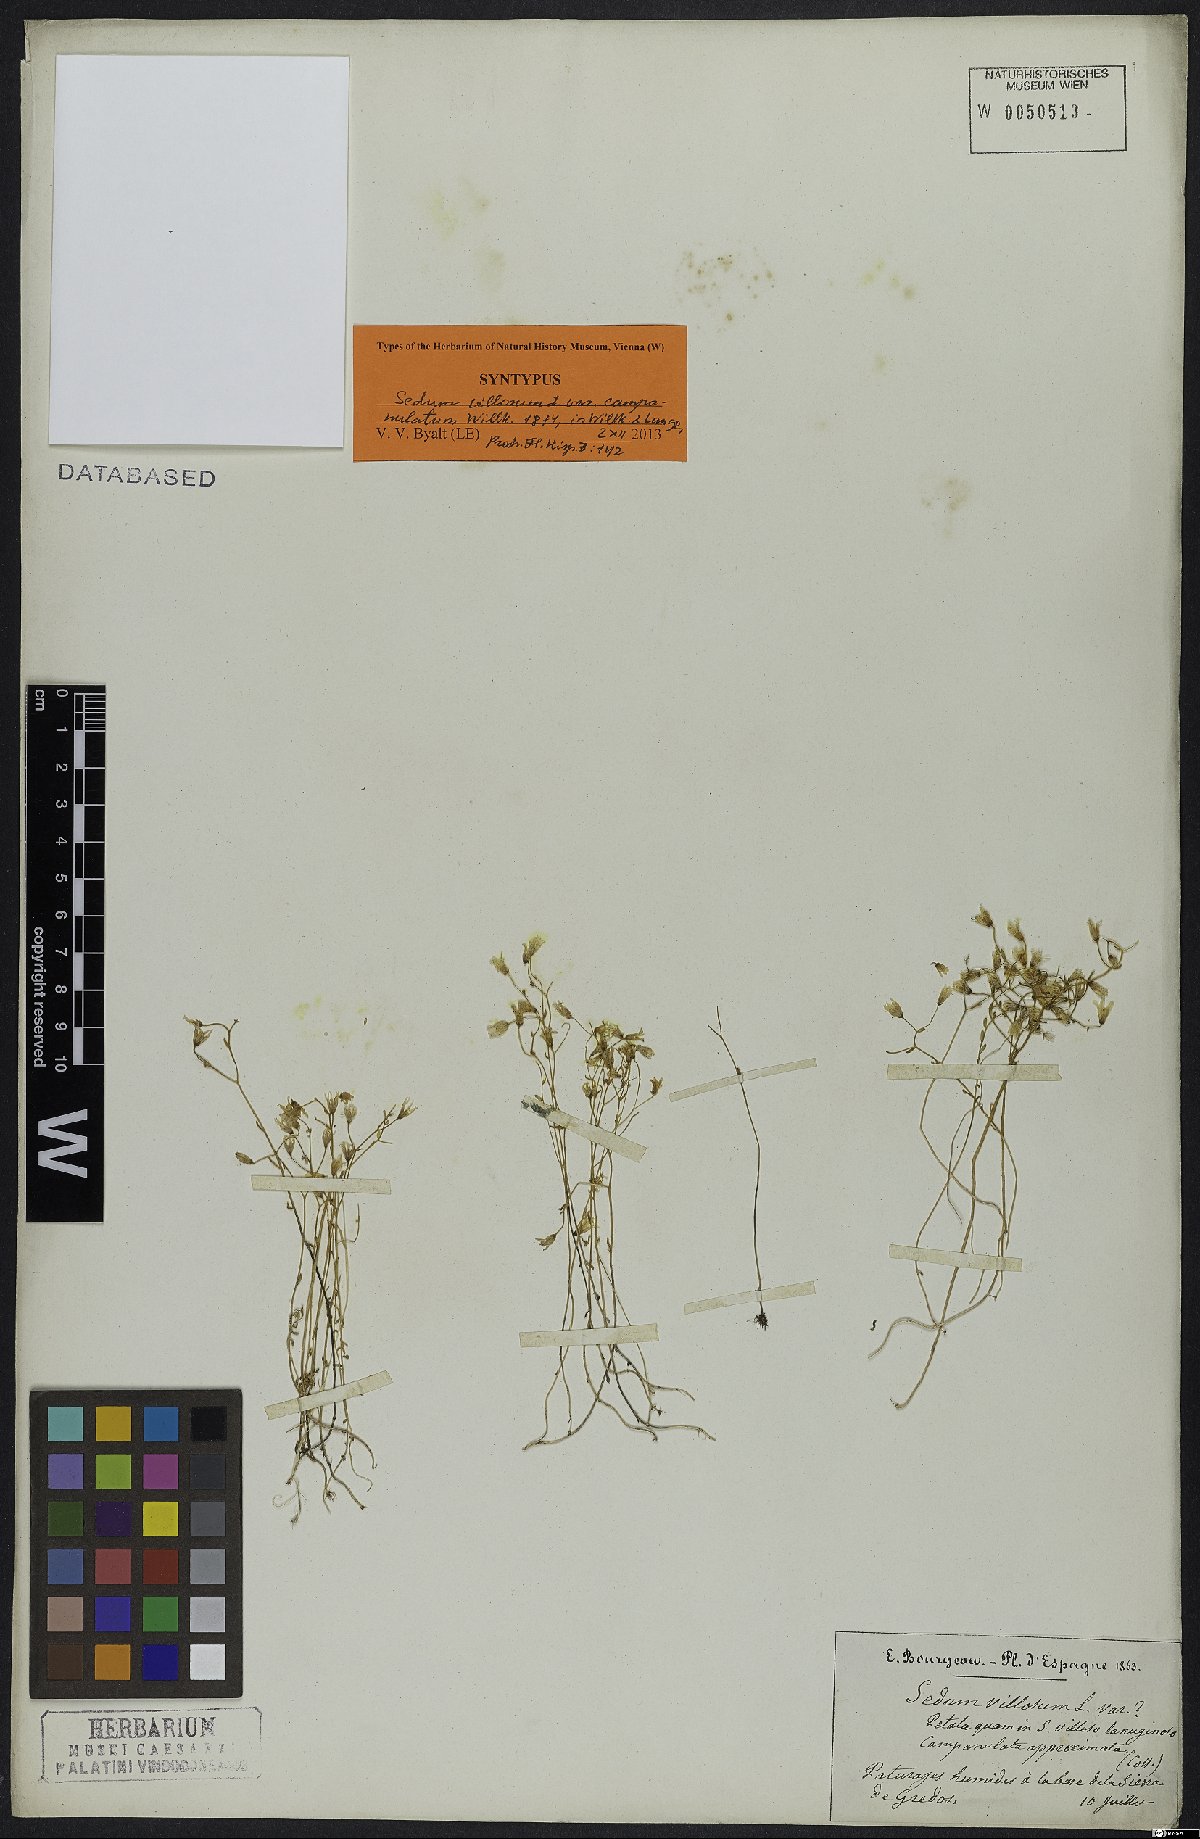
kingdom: Plantae
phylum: Tracheophyta
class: Magnoliopsida
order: Saxifragales
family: Crassulaceae
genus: Sedum
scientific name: Sedum lagascae
